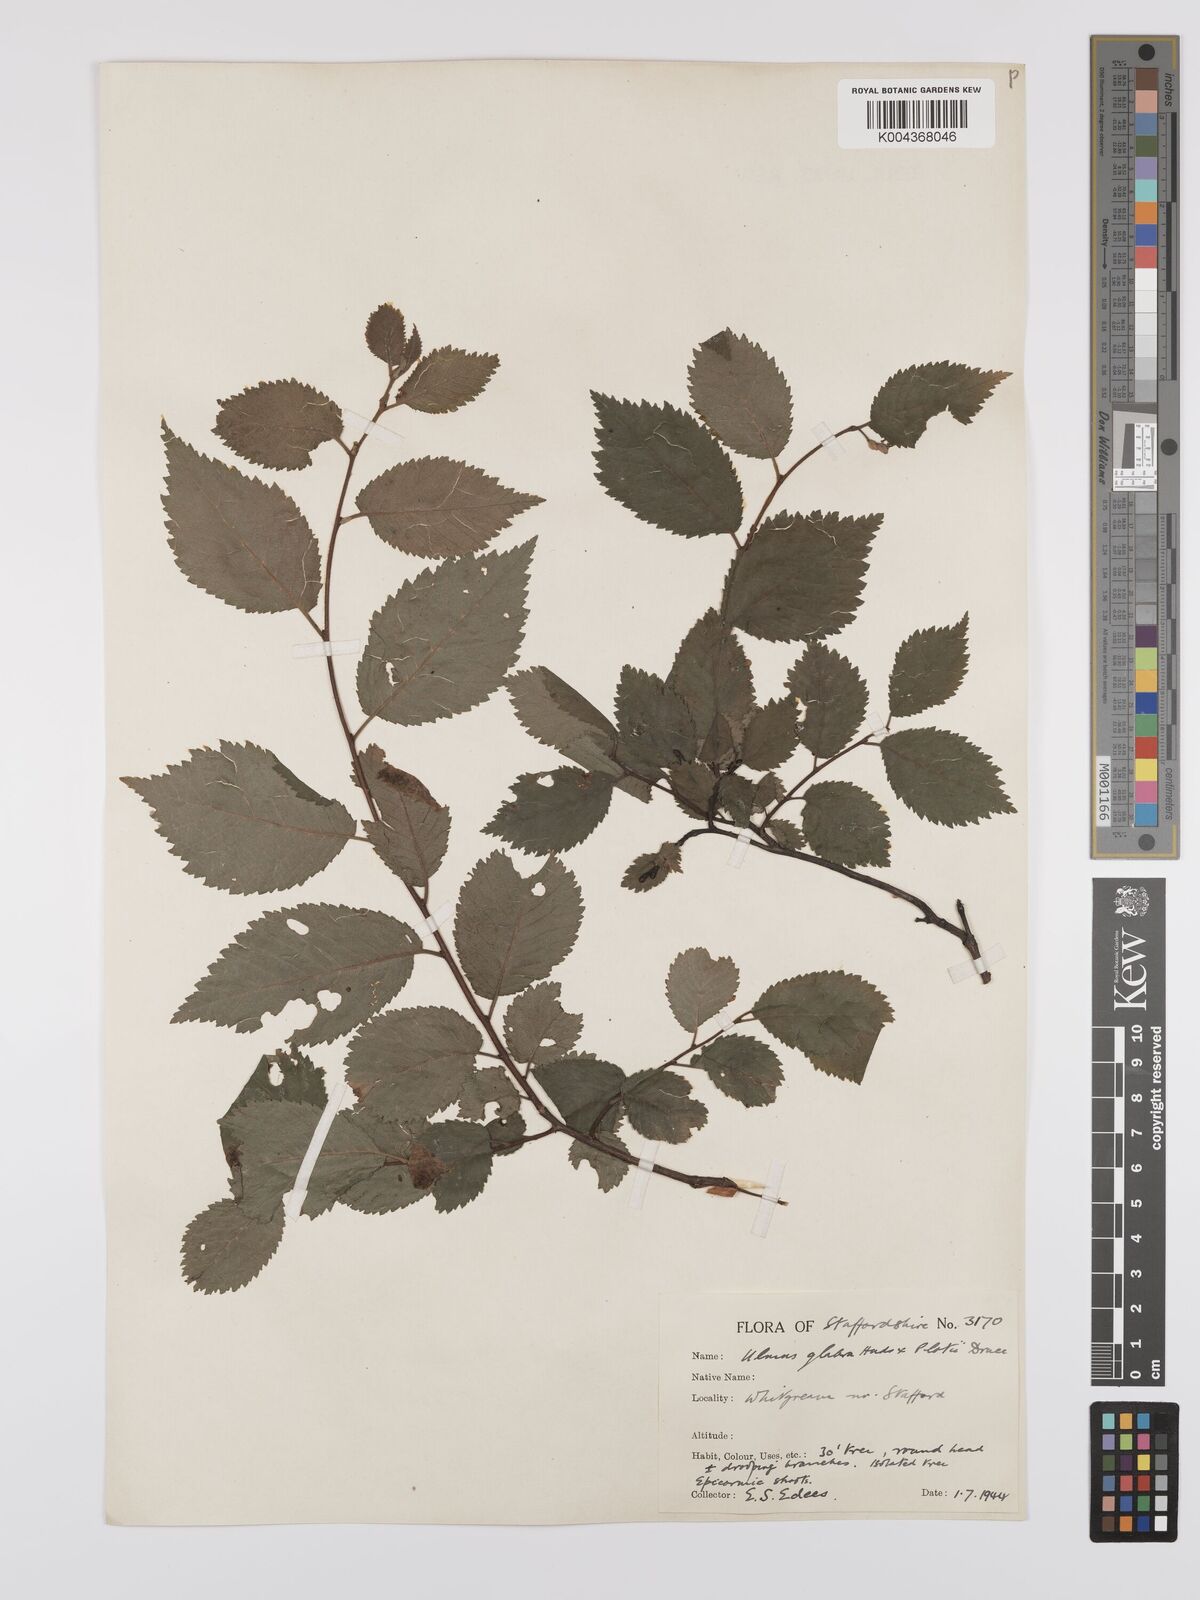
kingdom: Plantae
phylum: Tracheophyta
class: Magnoliopsida
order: Rosales
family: Ulmaceae
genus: Ulmus
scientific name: Ulmus
